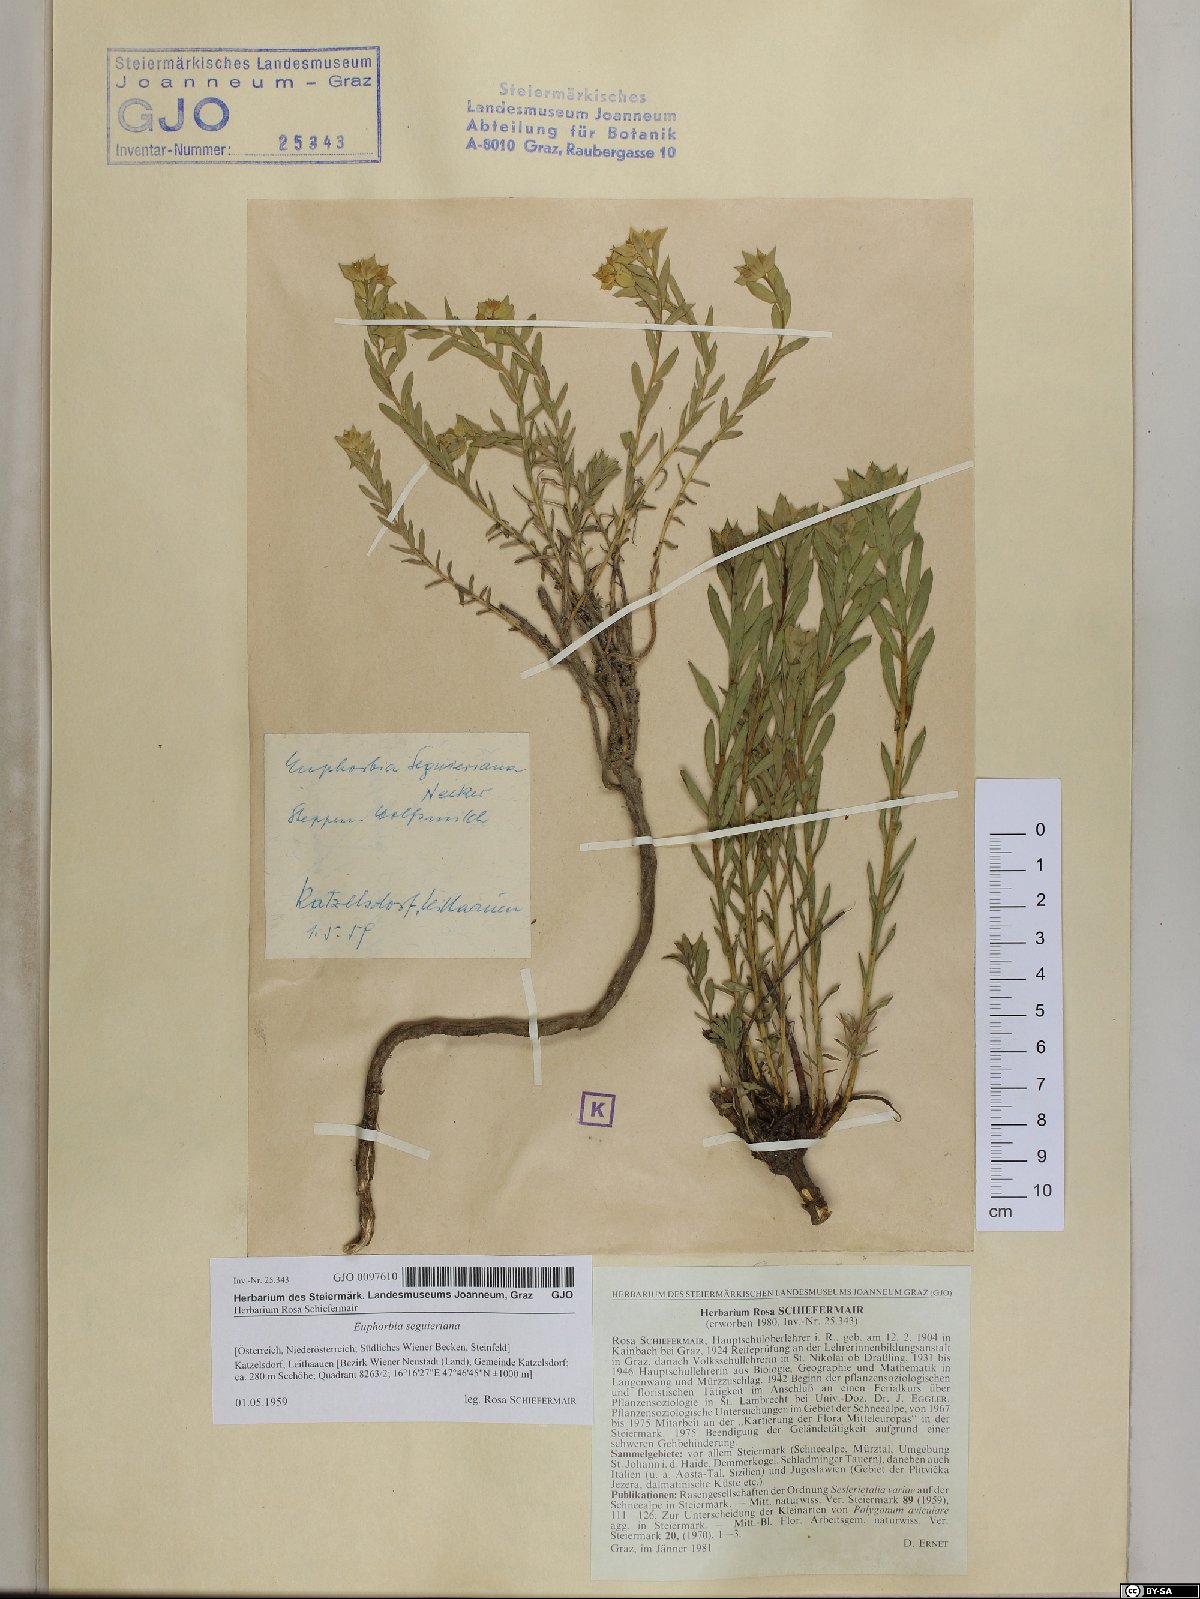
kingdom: Plantae
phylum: Tracheophyta
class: Magnoliopsida
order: Malpighiales
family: Euphorbiaceae
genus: Euphorbia
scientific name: Euphorbia seguieriana
